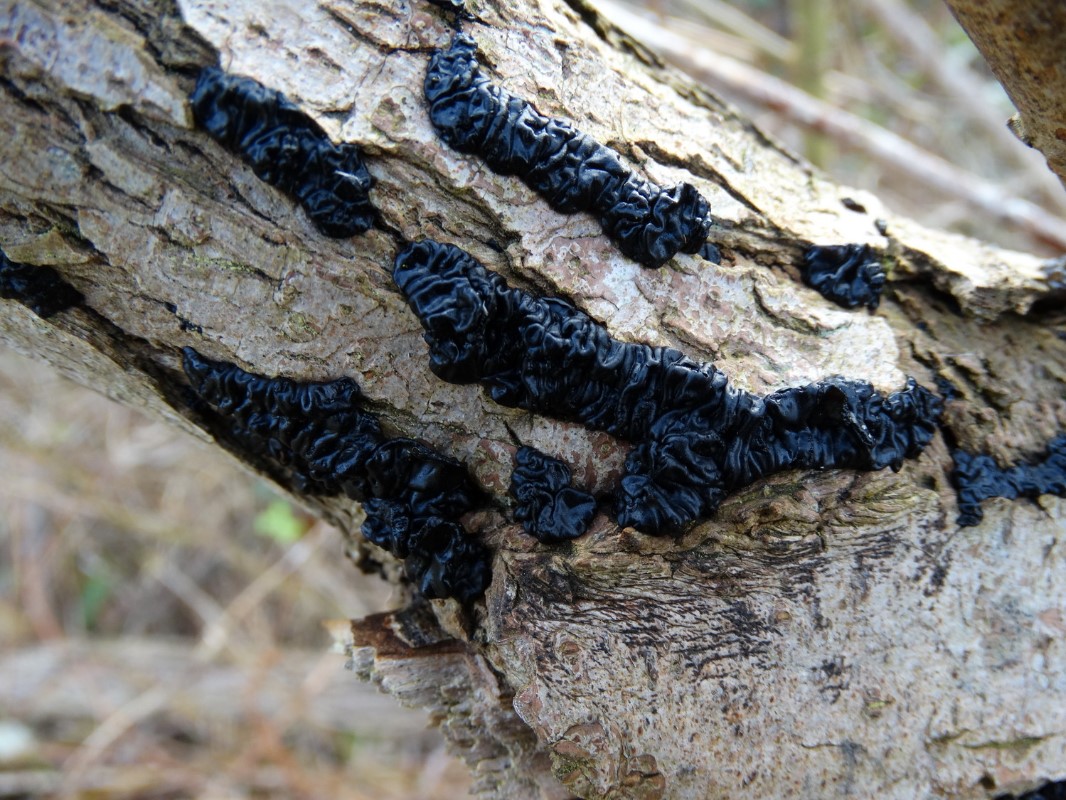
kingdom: Fungi
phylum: Basidiomycota
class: Agaricomycetes
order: Auriculariales
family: Auriculariaceae
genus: Exidia
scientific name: Exidia nigricans
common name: almindelig bævretop
